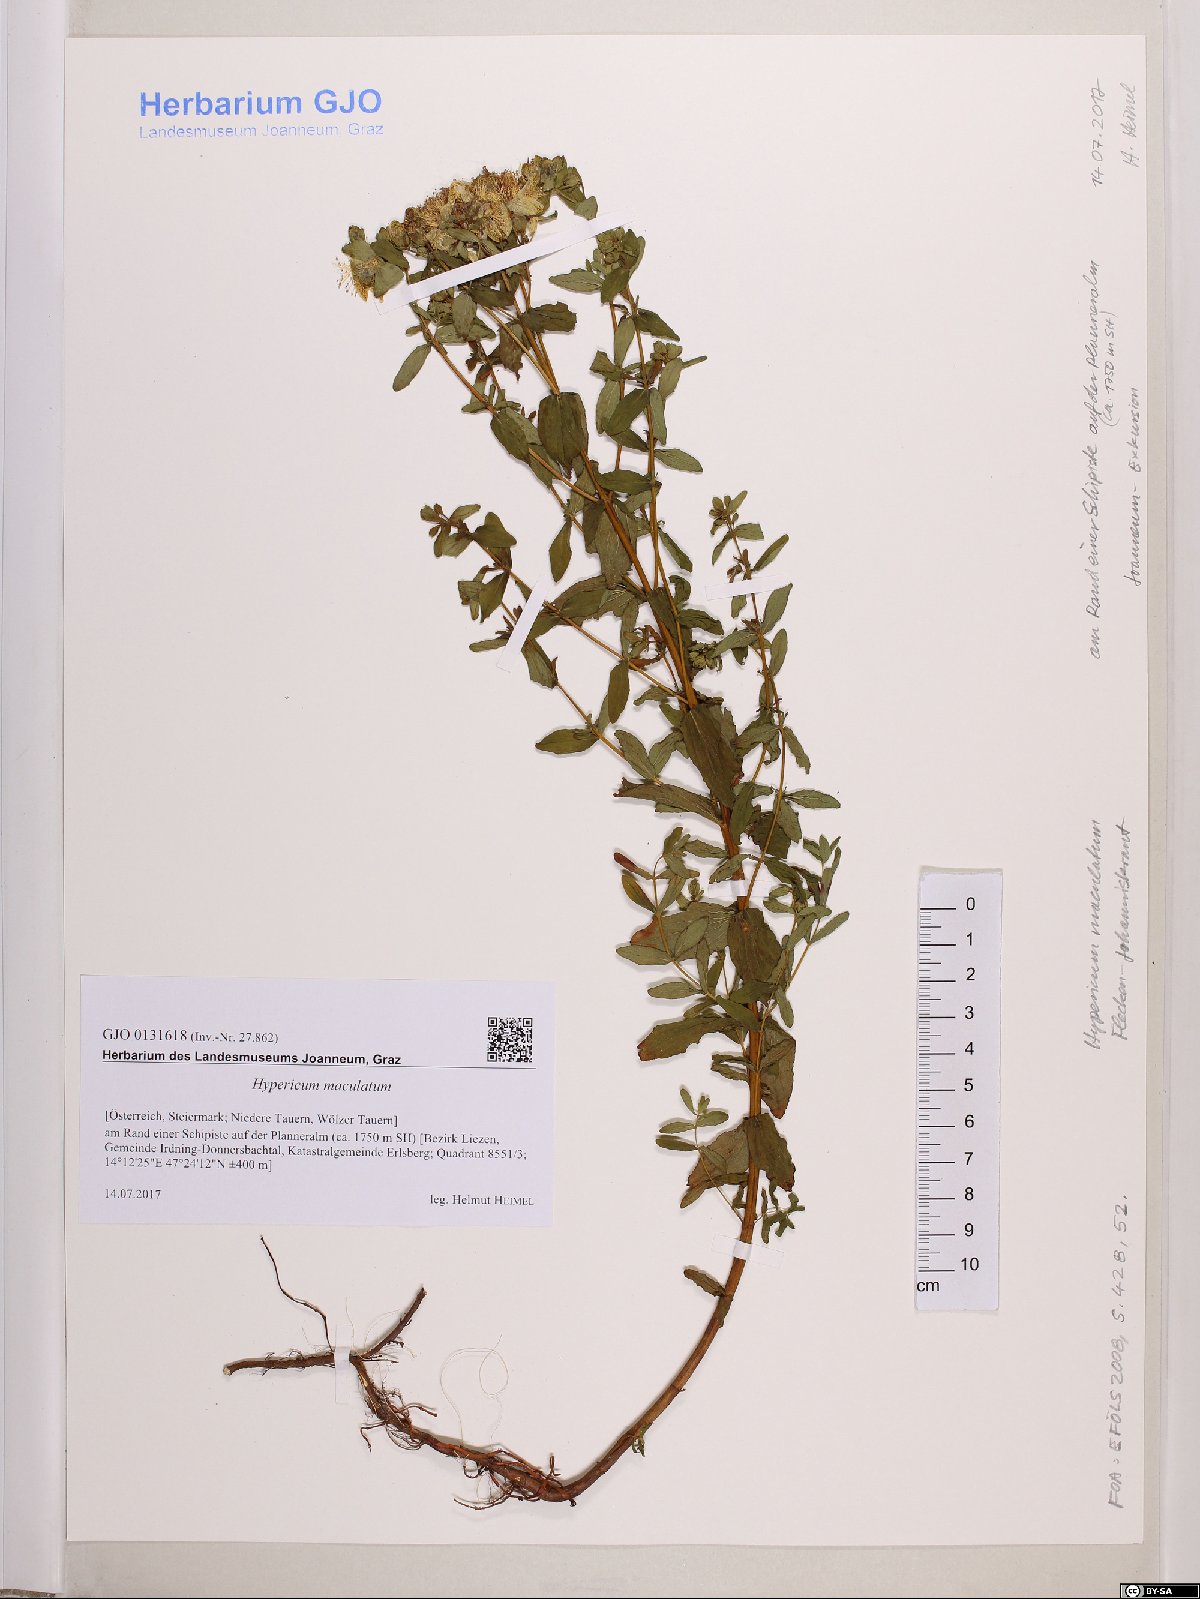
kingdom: Plantae
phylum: Tracheophyta
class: Magnoliopsida
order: Malpighiales
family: Hypericaceae
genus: Hypericum
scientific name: Hypericum maculatum
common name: Imperforate st. john's-wort
